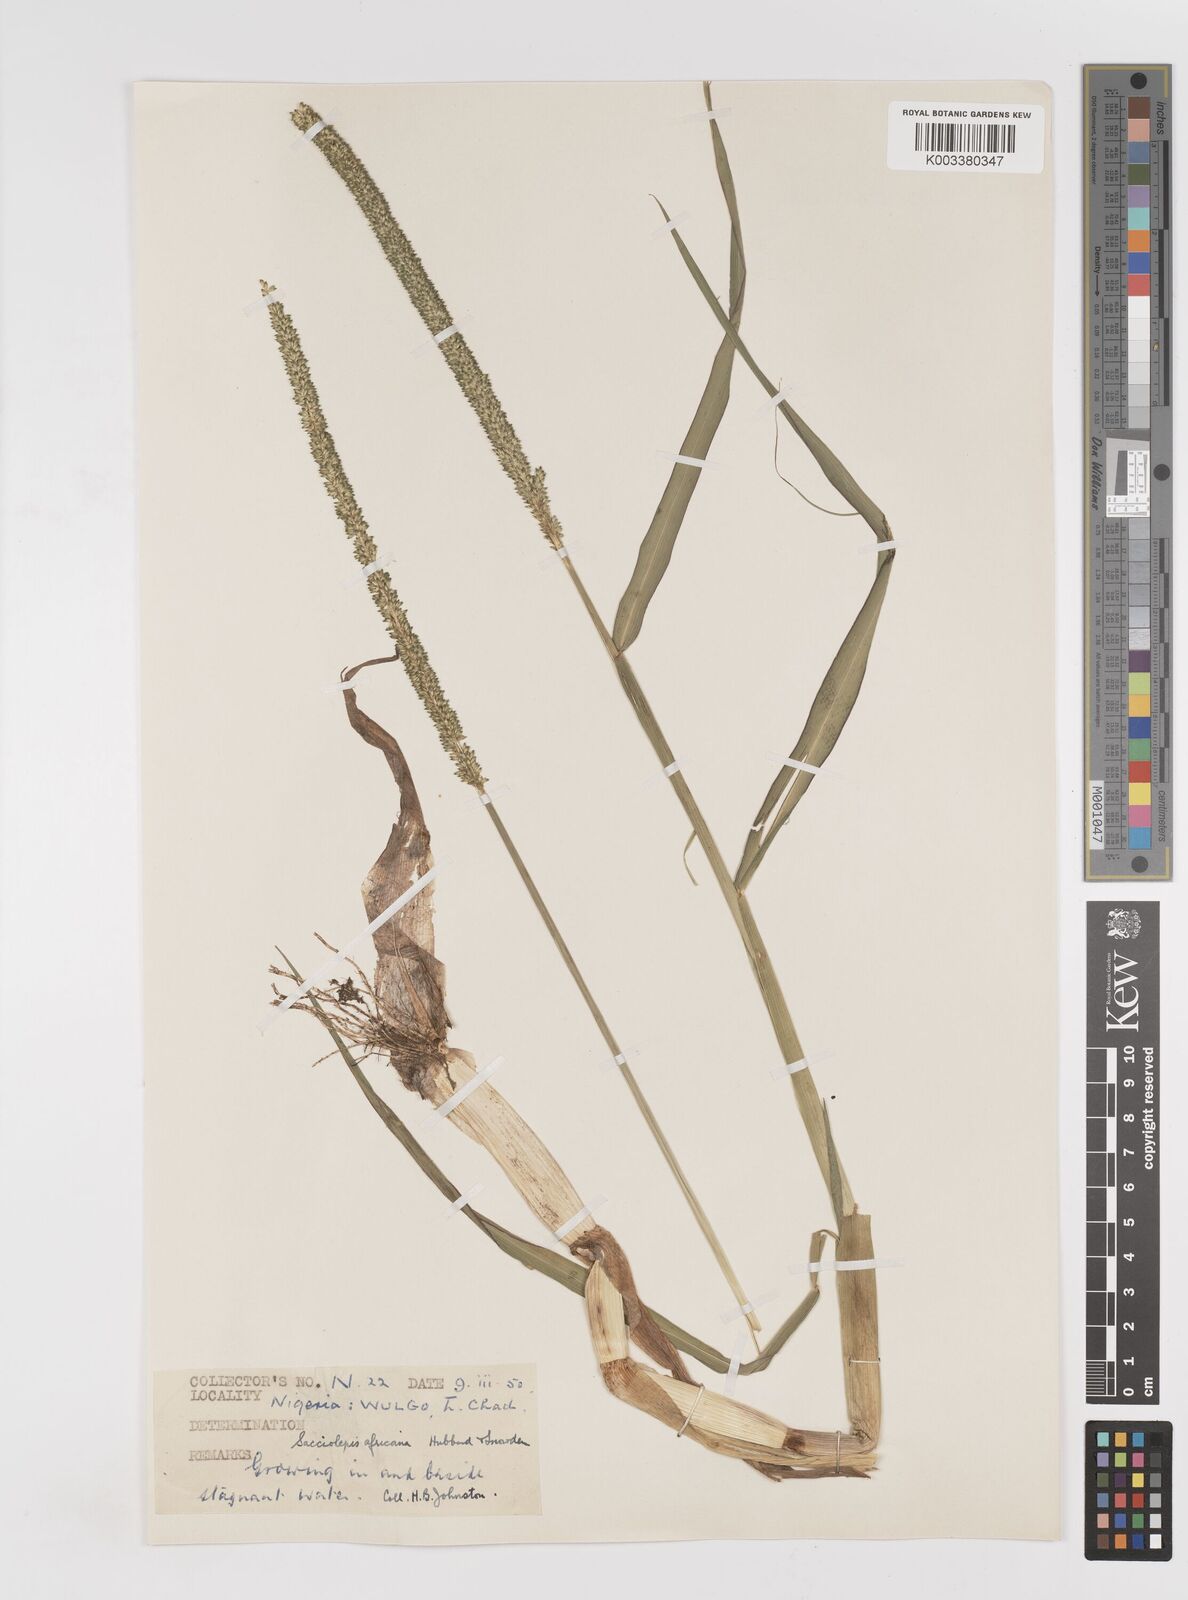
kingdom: Plantae
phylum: Tracheophyta
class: Liliopsida
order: Poales
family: Poaceae
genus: Sacciolepis
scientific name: Sacciolepis africana
